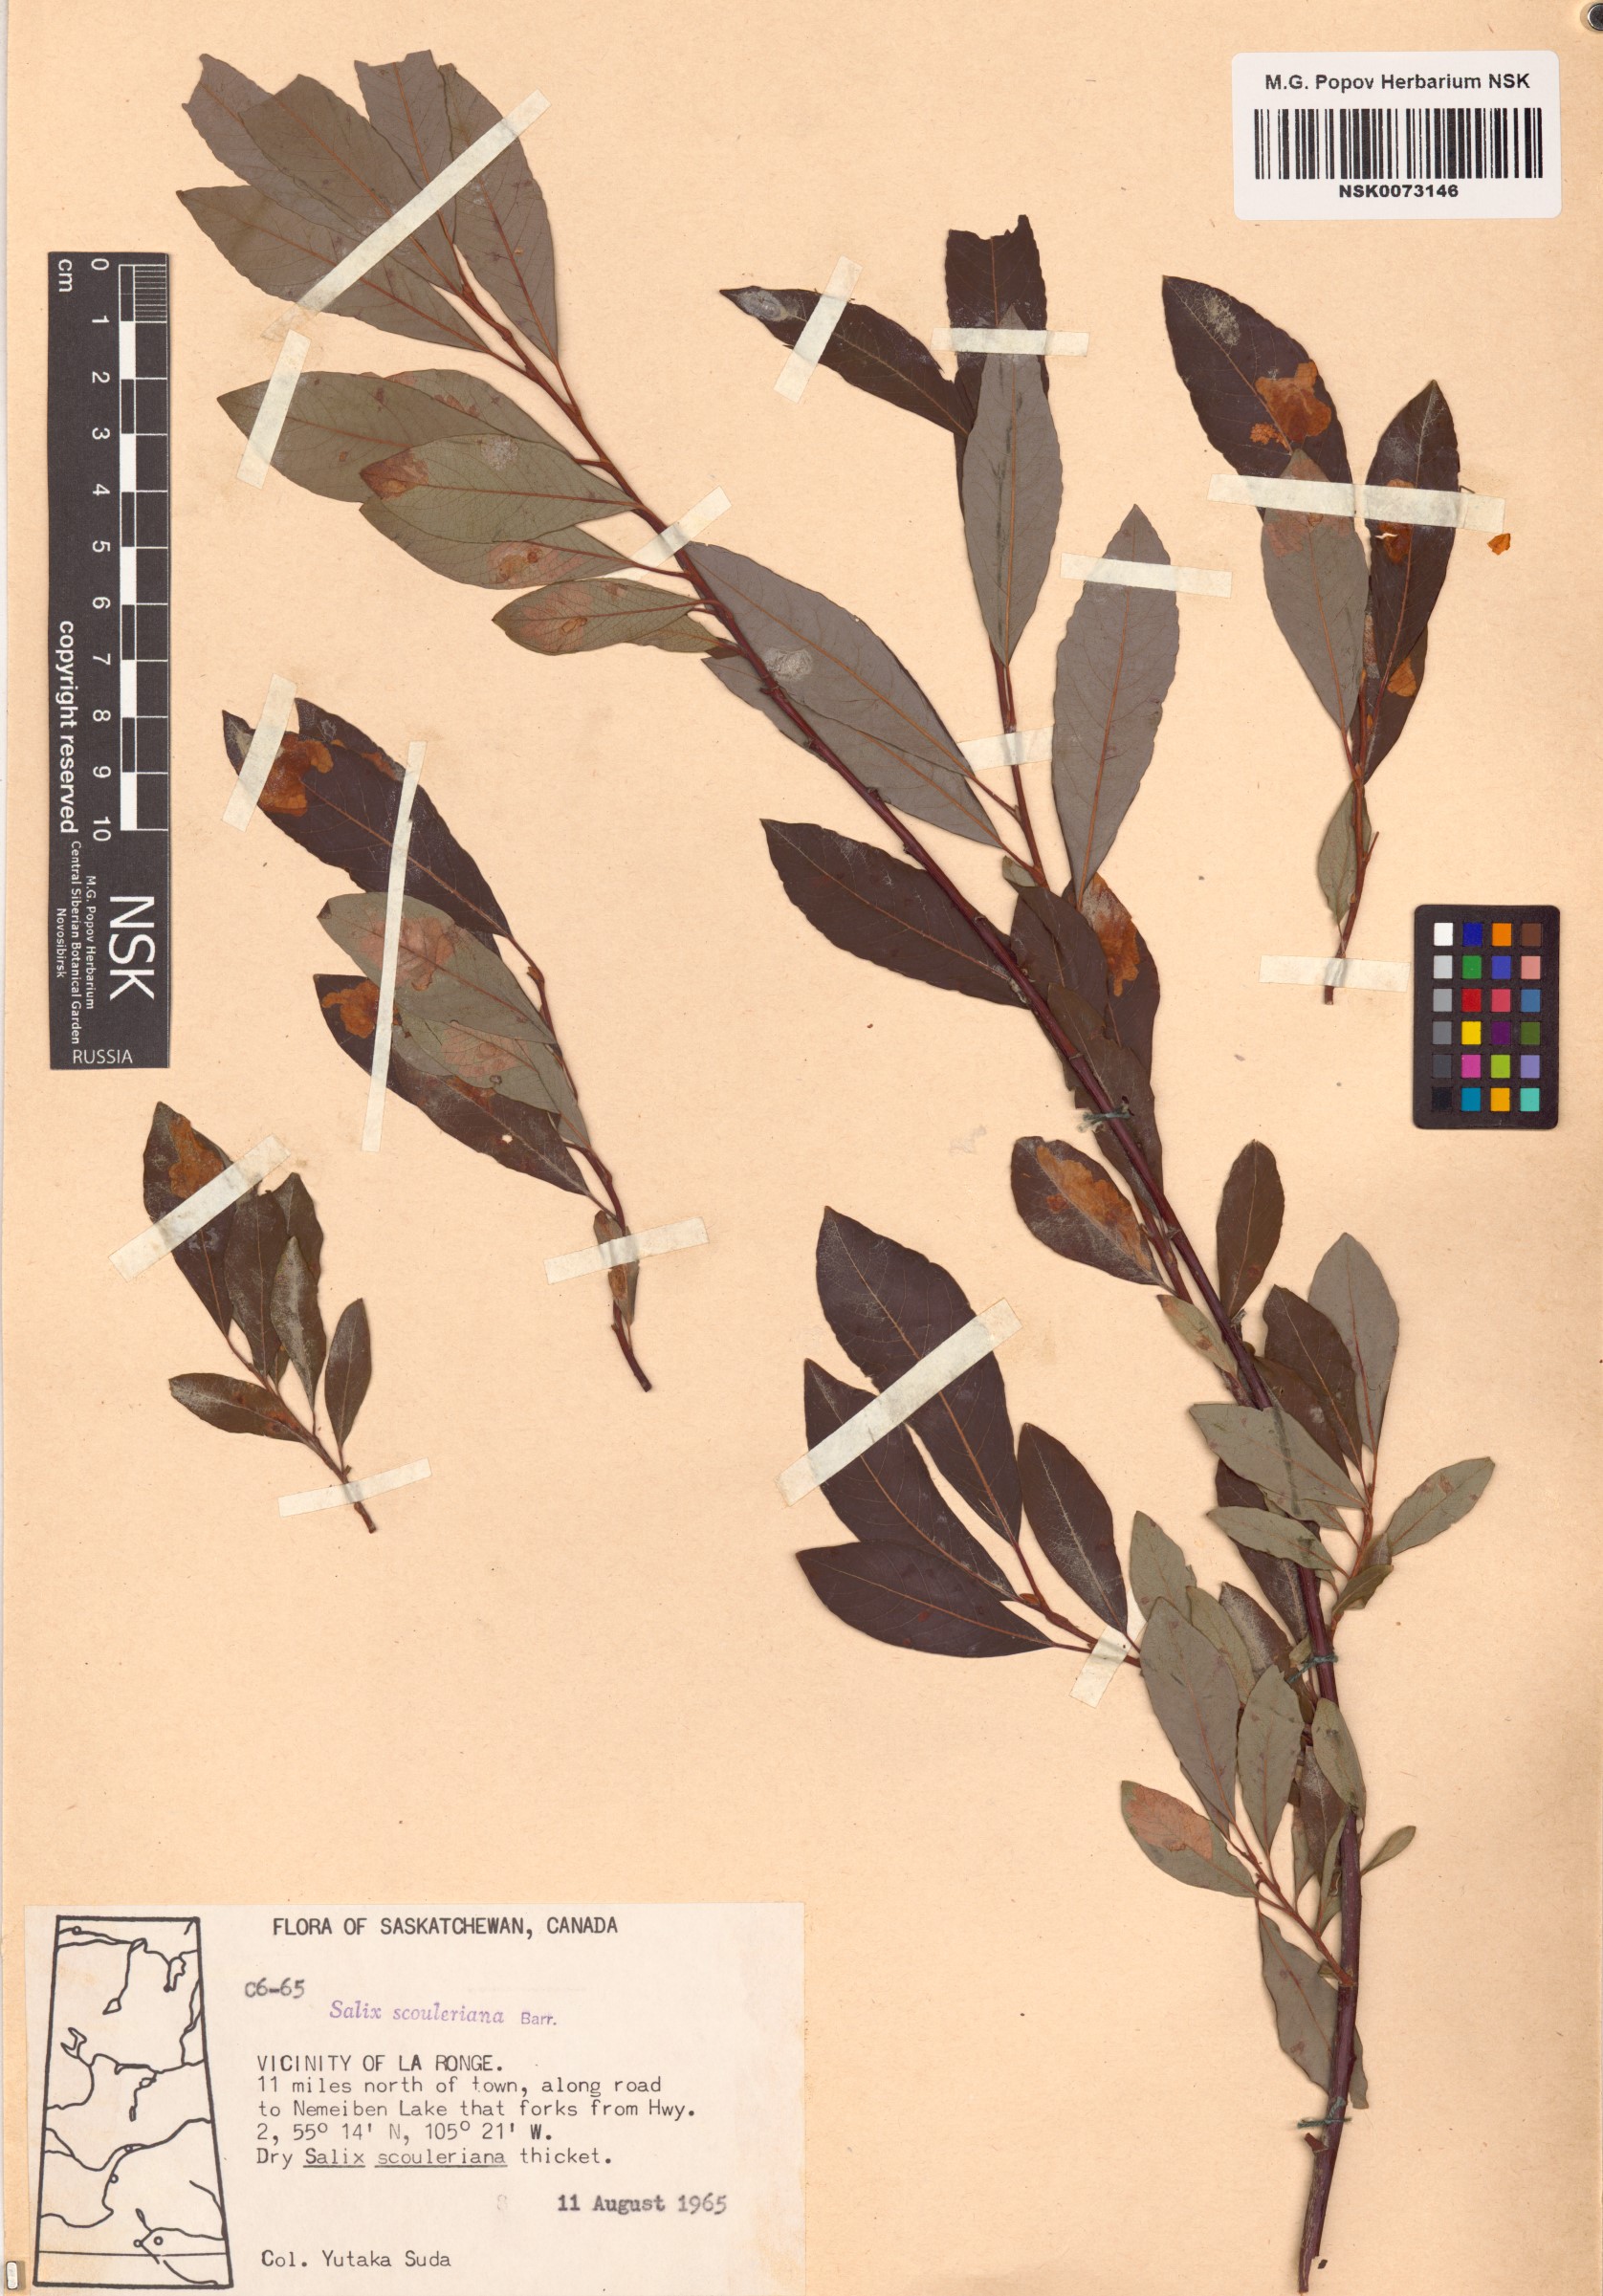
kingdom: Plantae
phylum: Tracheophyta
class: Magnoliopsida
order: Malpighiales
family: Salicaceae
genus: Salix
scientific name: Salix scouleriana
